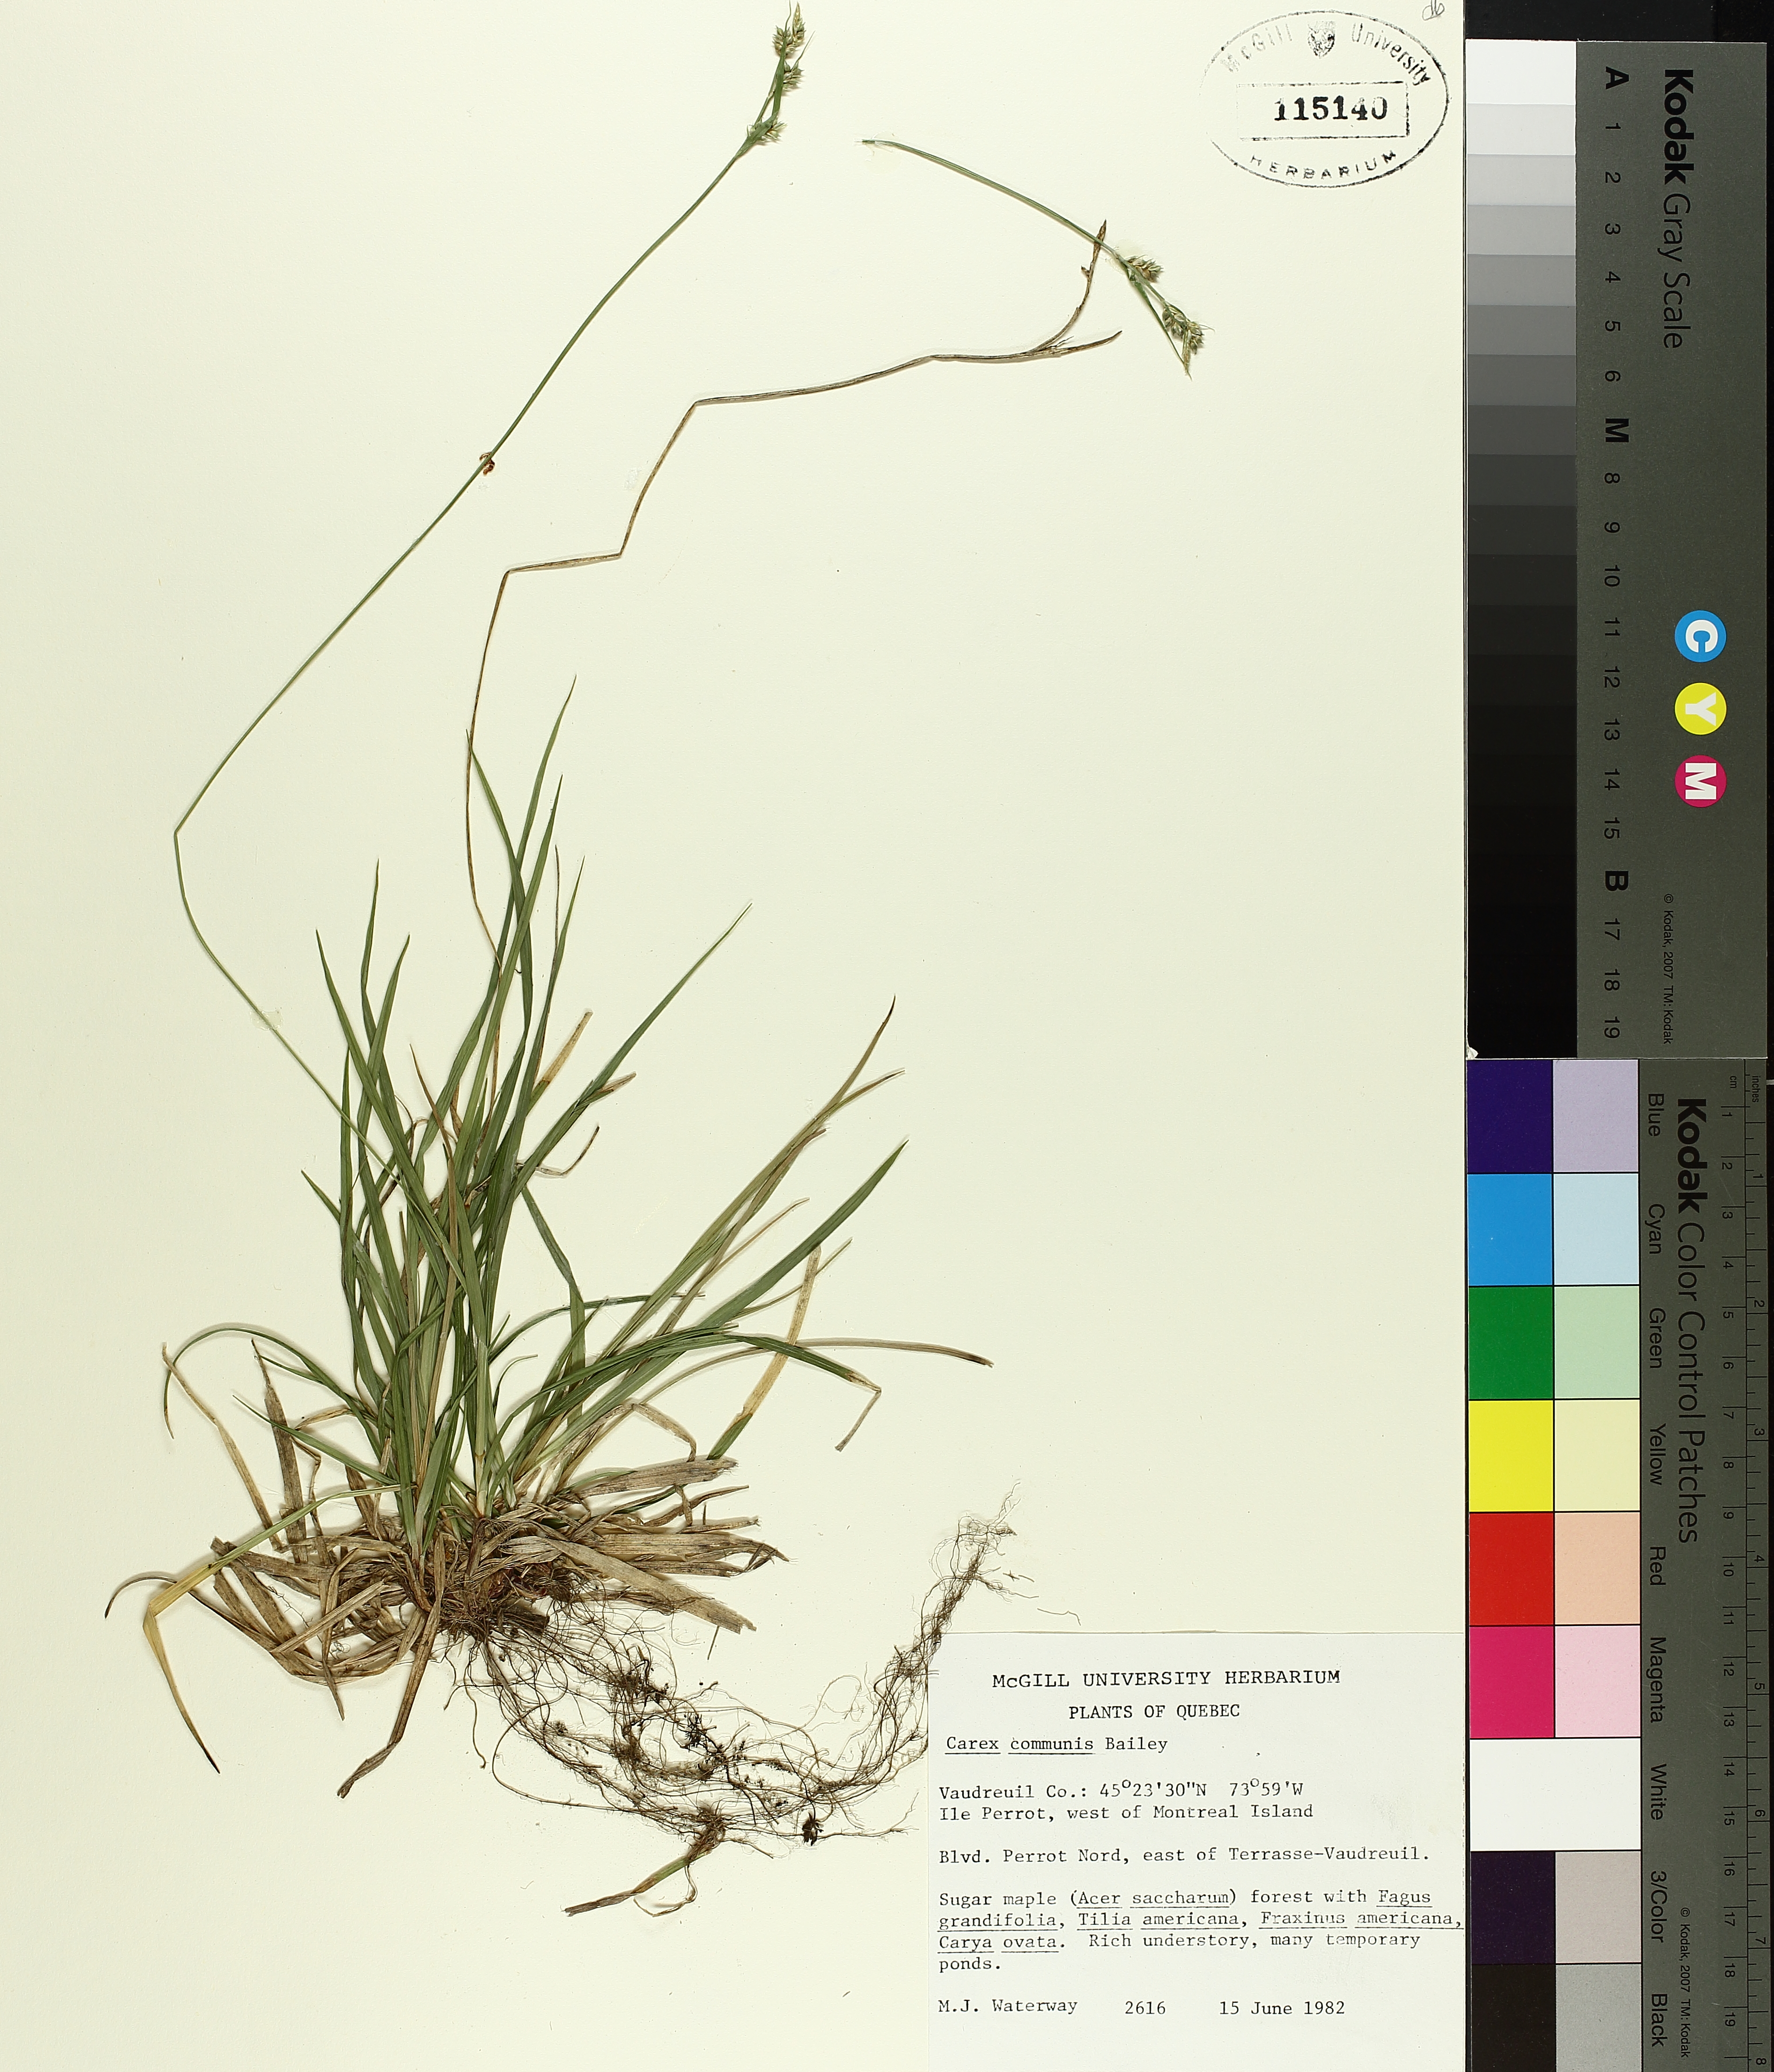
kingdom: Plantae
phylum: Tracheophyta
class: Liliopsida
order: Poales
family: Cyperaceae
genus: Carex
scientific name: Carex communis
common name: Colonial oak sedge
